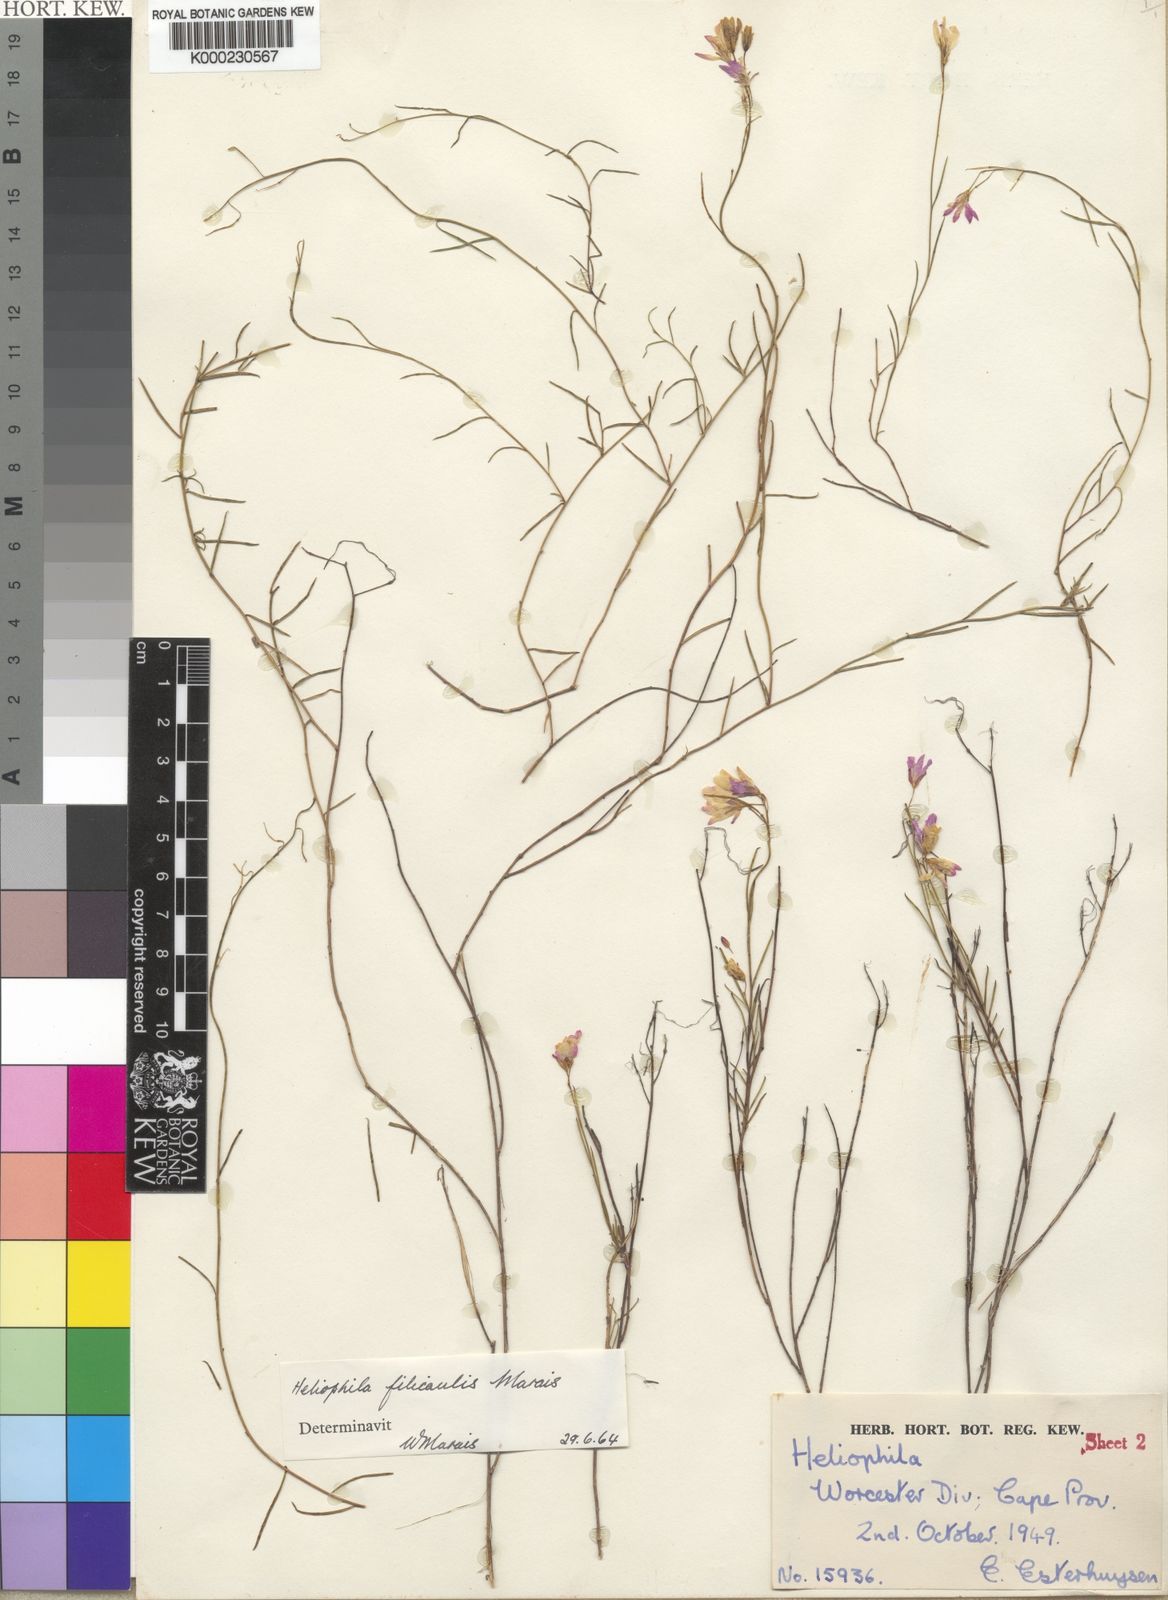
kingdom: Plantae
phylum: Tracheophyta
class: Magnoliopsida
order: Brassicales
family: Brassicaceae
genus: Heliophila
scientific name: Heliophila filicaulis
